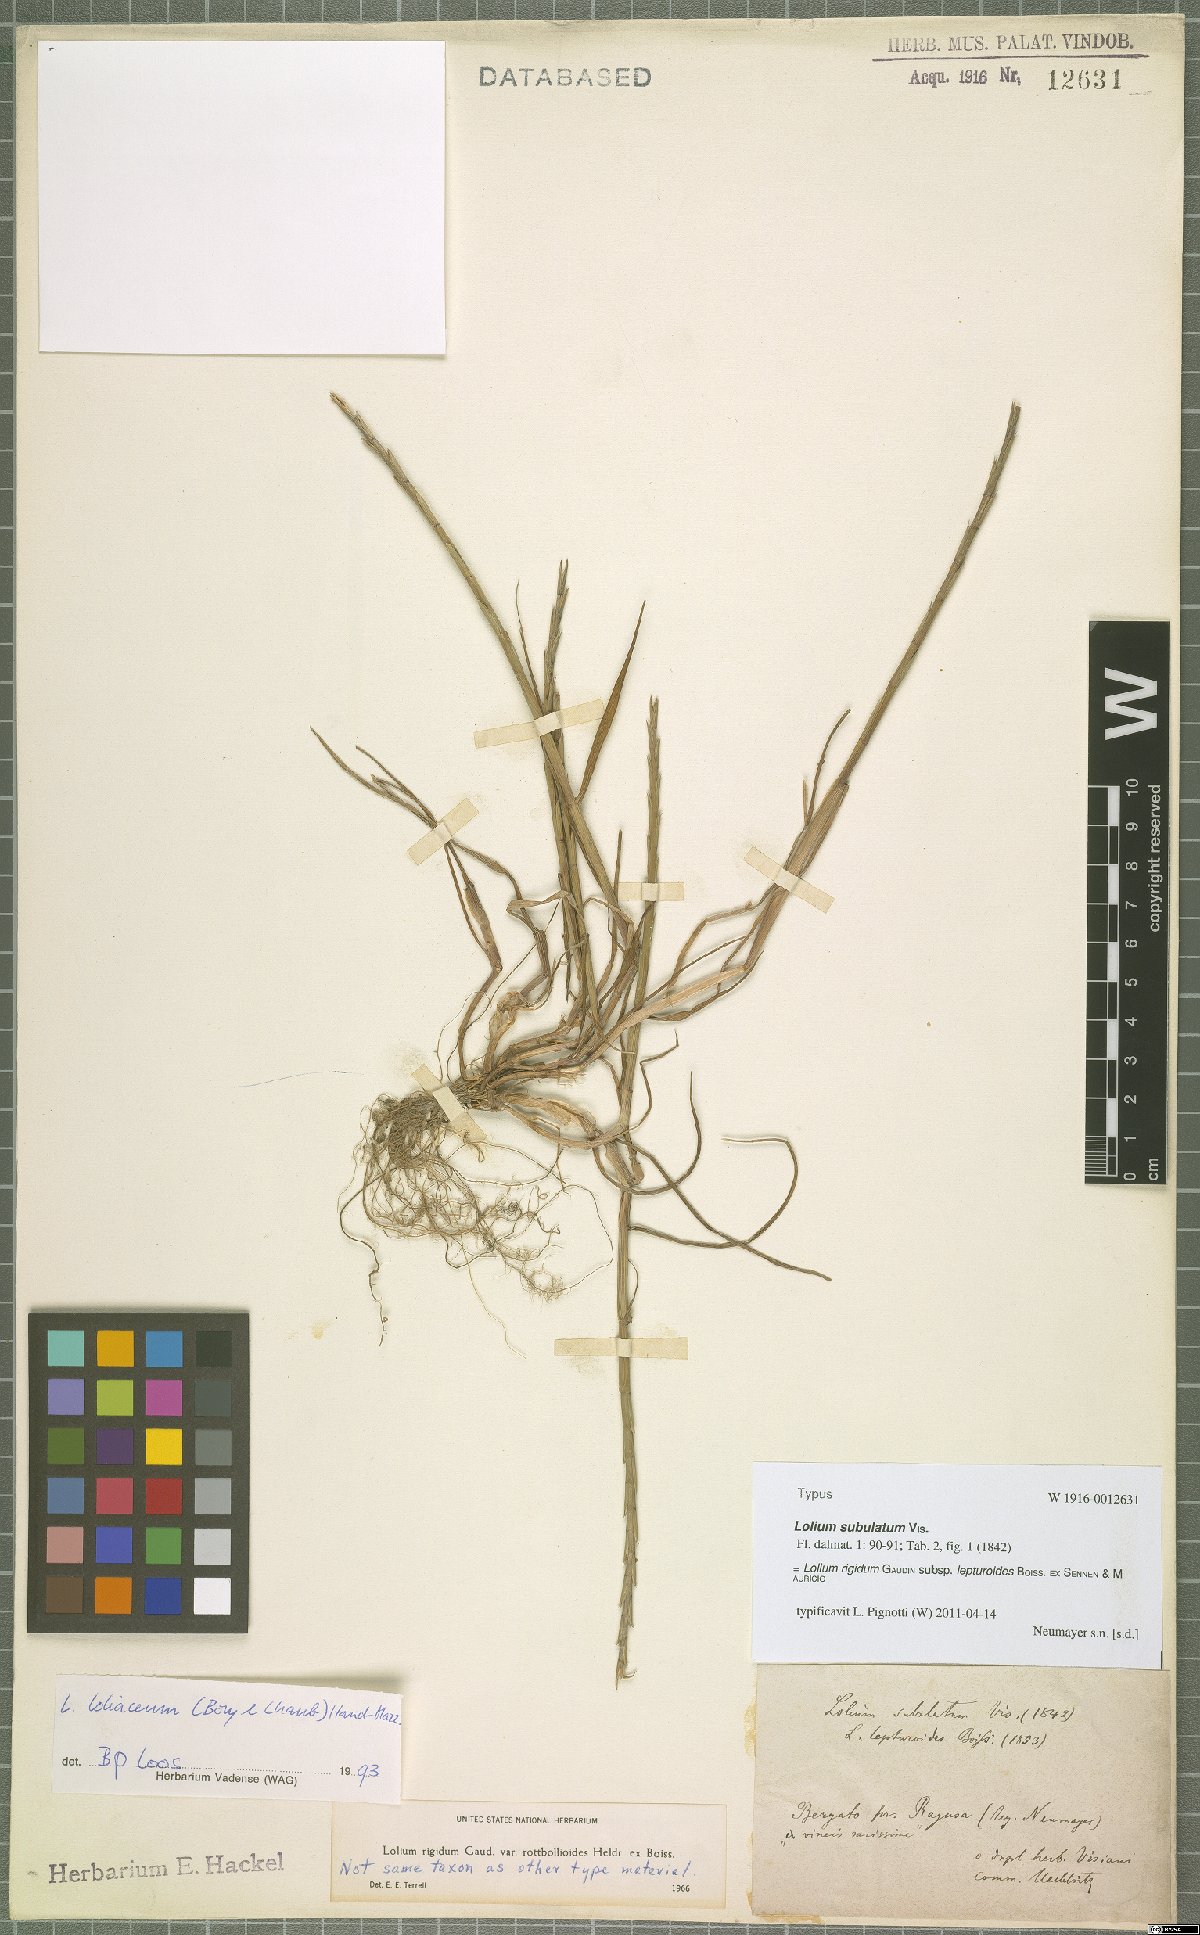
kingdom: Plantae
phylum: Tracheophyta
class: Liliopsida
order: Poales
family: Poaceae
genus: Lolium
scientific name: Lolium rigidum
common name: Wimmera ryegrass
